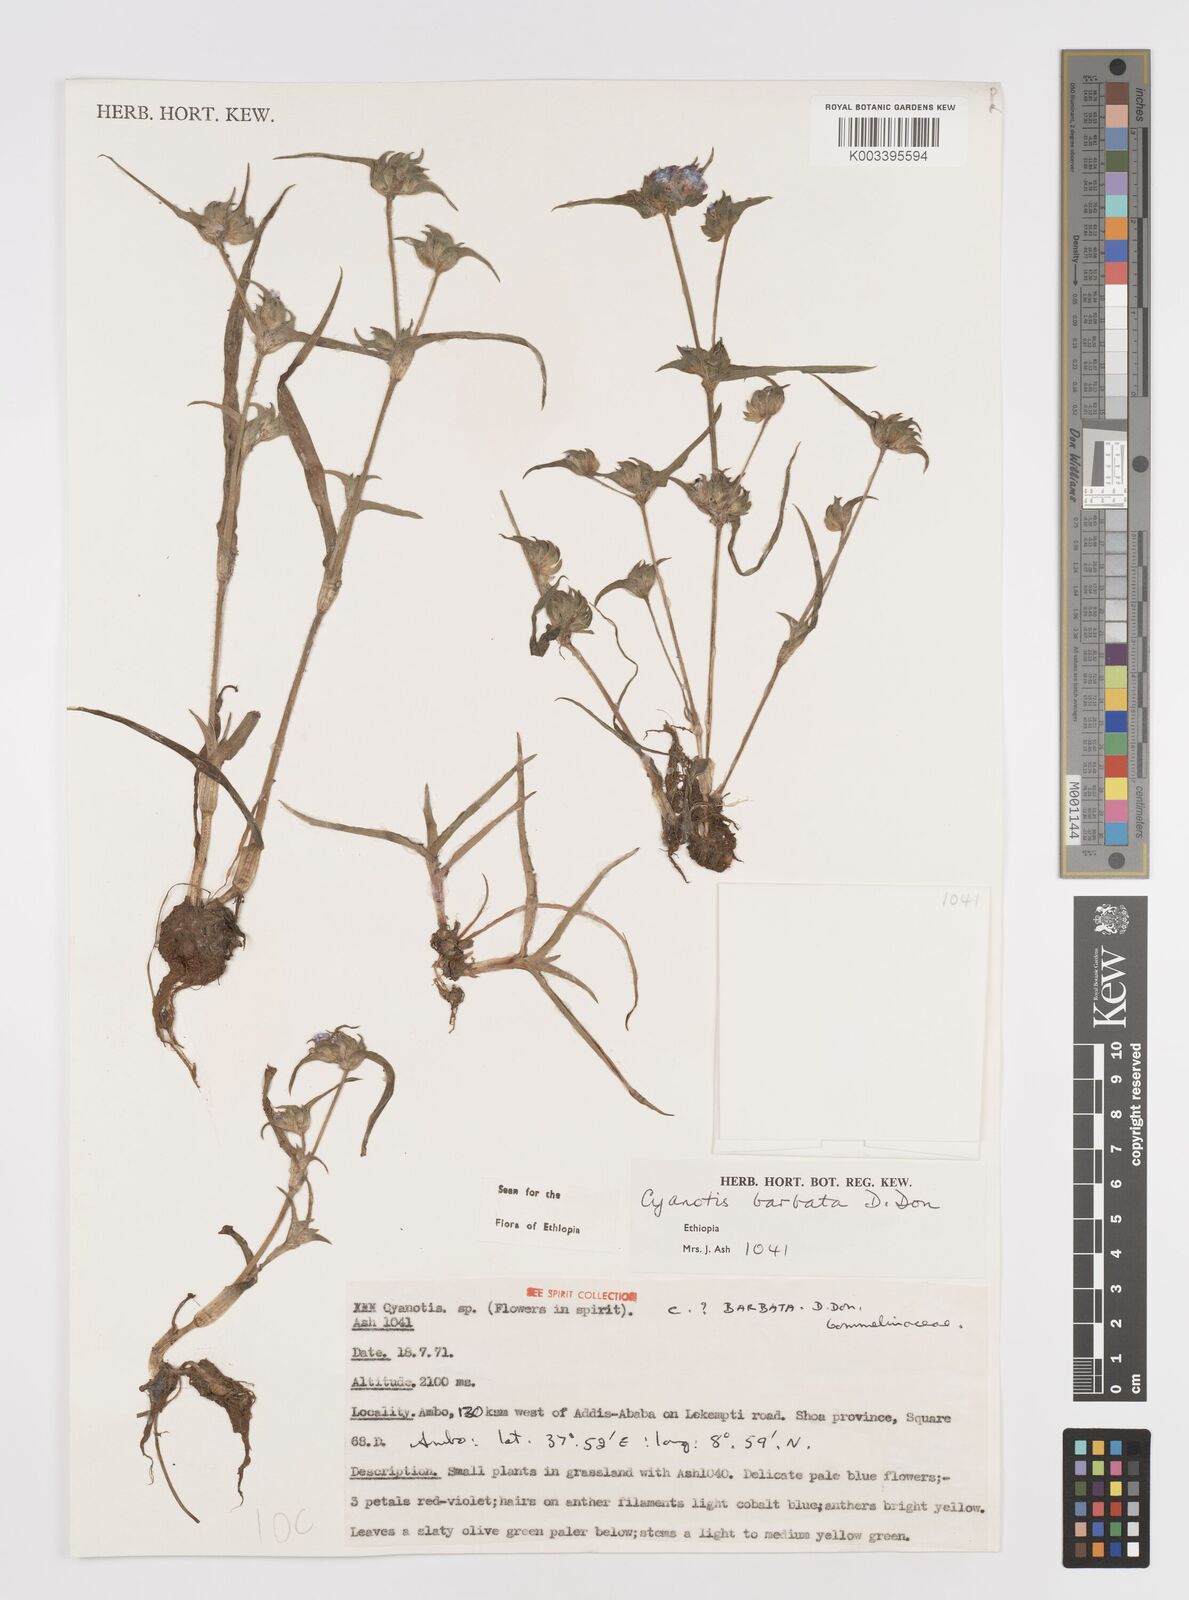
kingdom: Plantae
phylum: Tracheophyta
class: Liliopsida
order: Commelinales
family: Commelinaceae
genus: Cyanotis
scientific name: Cyanotis vaga
